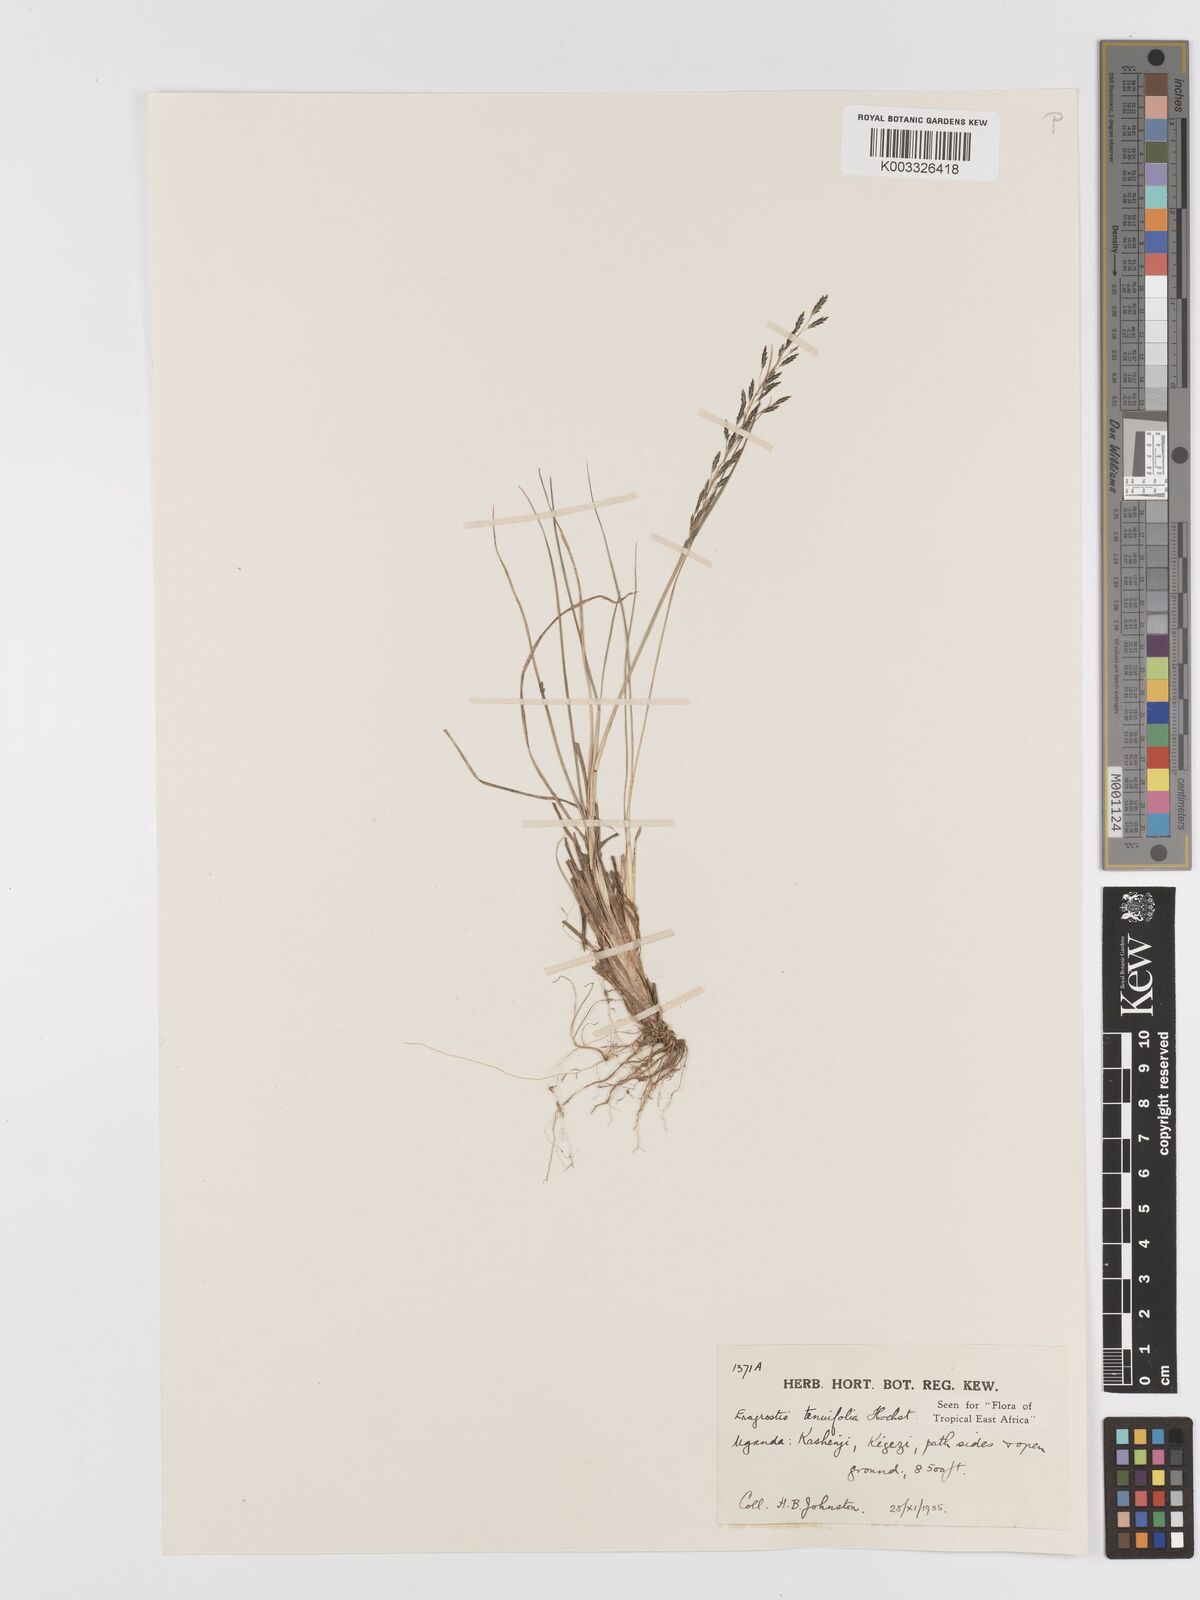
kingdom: Plantae
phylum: Tracheophyta
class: Liliopsida
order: Poales
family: Poaceae
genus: Eragrostis
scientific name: Eragrostis tenuifolia
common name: Elastic grass
